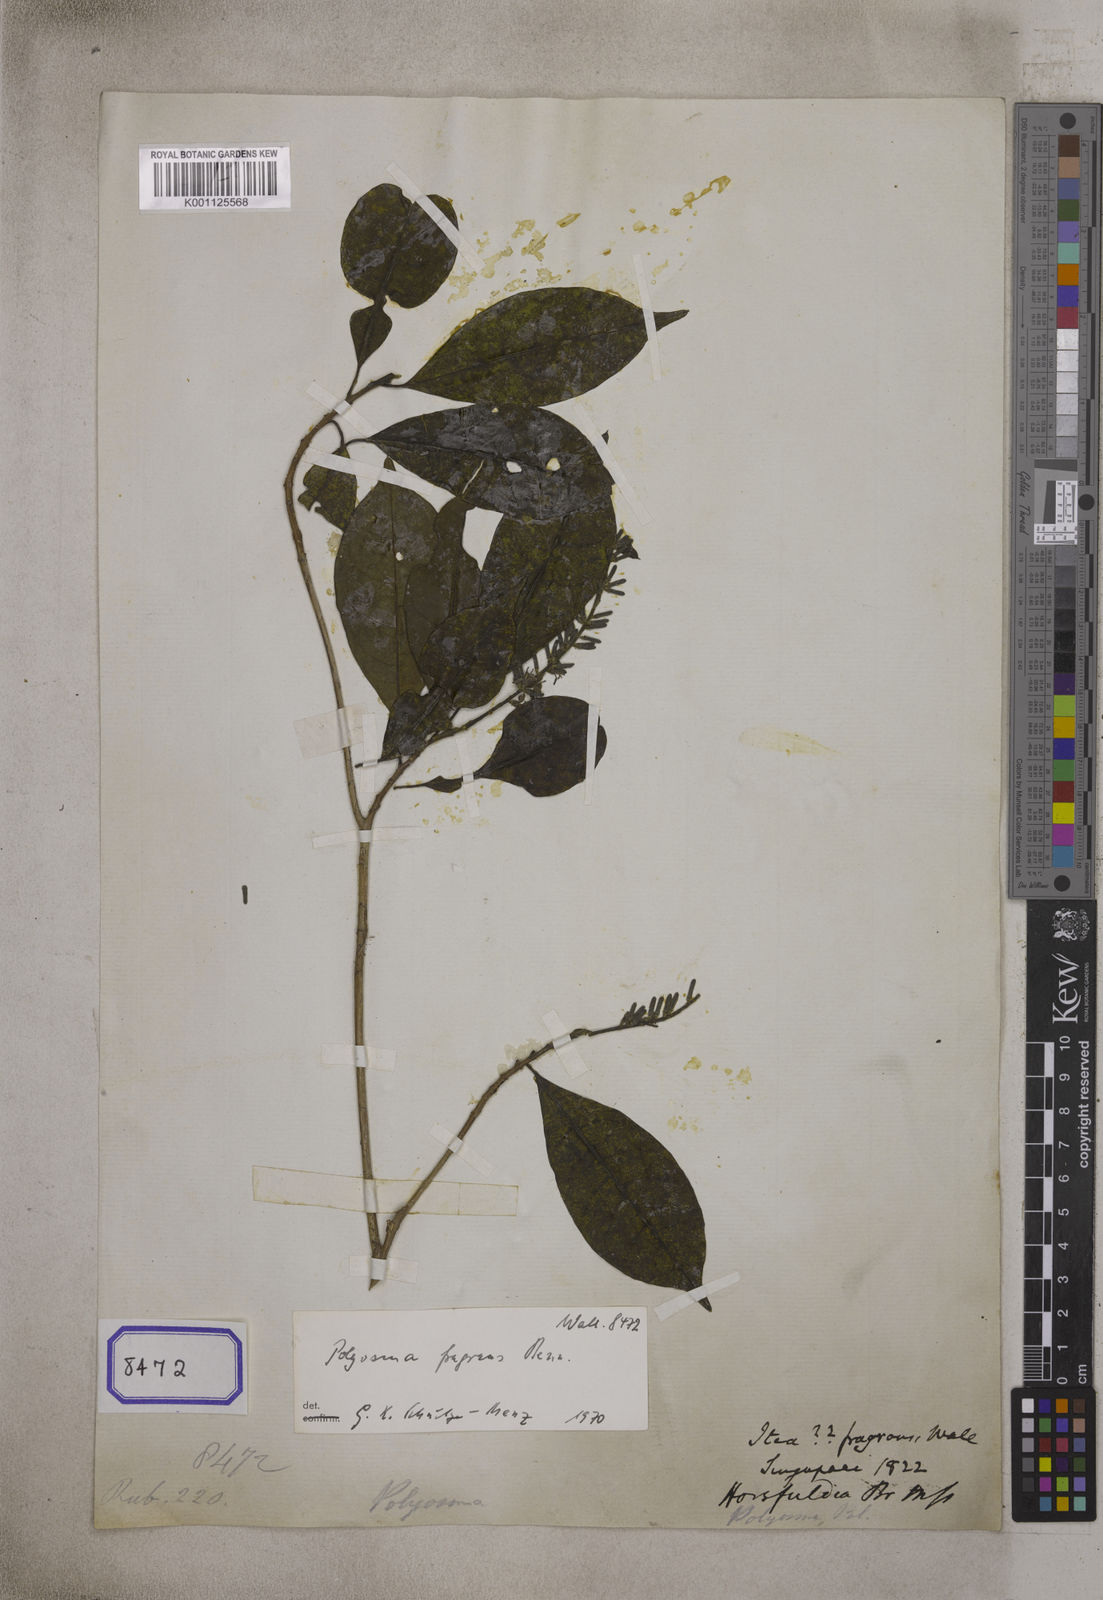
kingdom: Plantae
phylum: Tracheophyta
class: Magnoliopsida
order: Escalloniales
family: Escalloniaceae
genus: Polyosma
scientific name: Polyosma fragrans
